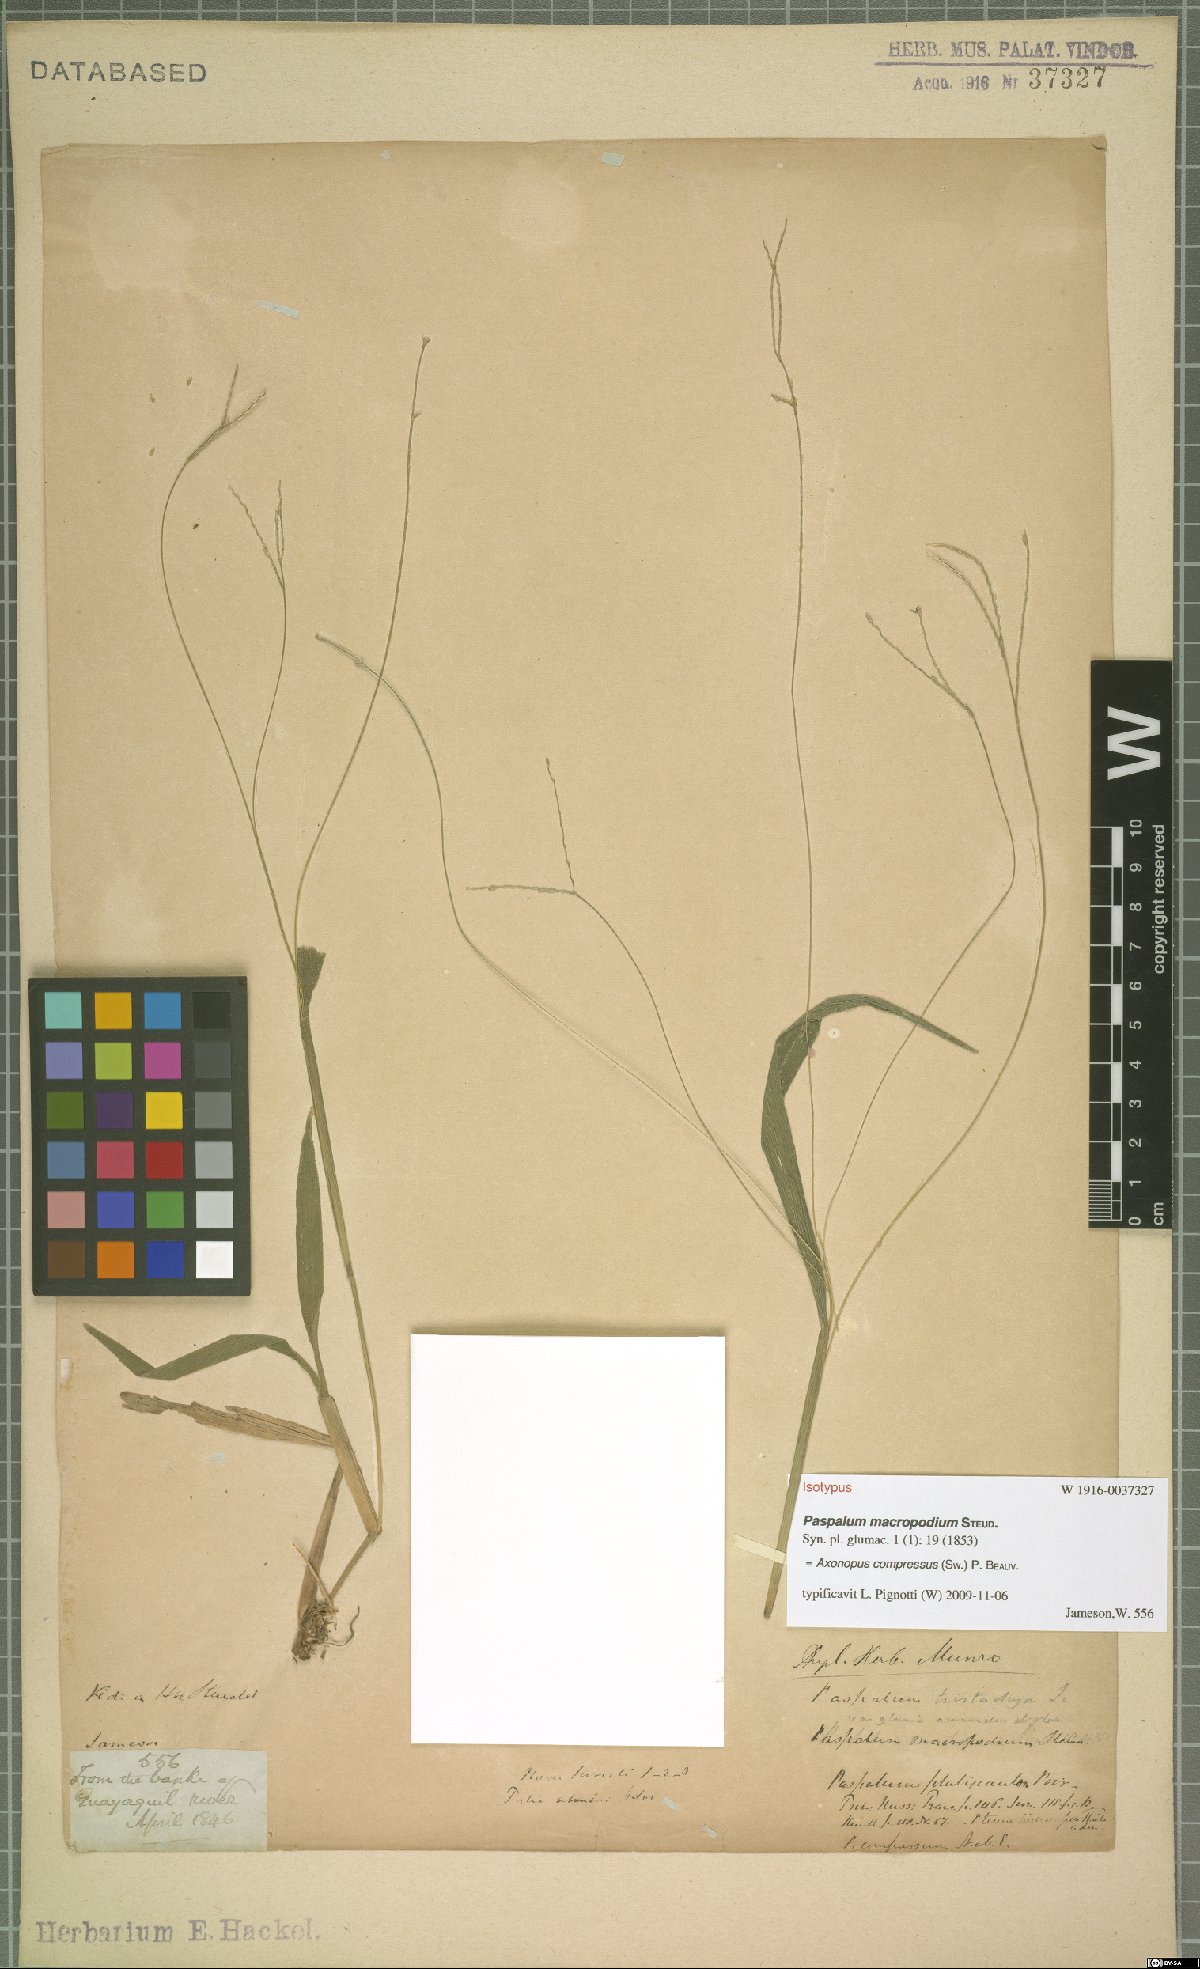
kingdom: Plantae
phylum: Tracheophyta
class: Liliopsida
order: Poales
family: Poaceae
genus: Axonopus
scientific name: Axonopus compressus
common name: American carpet grass
